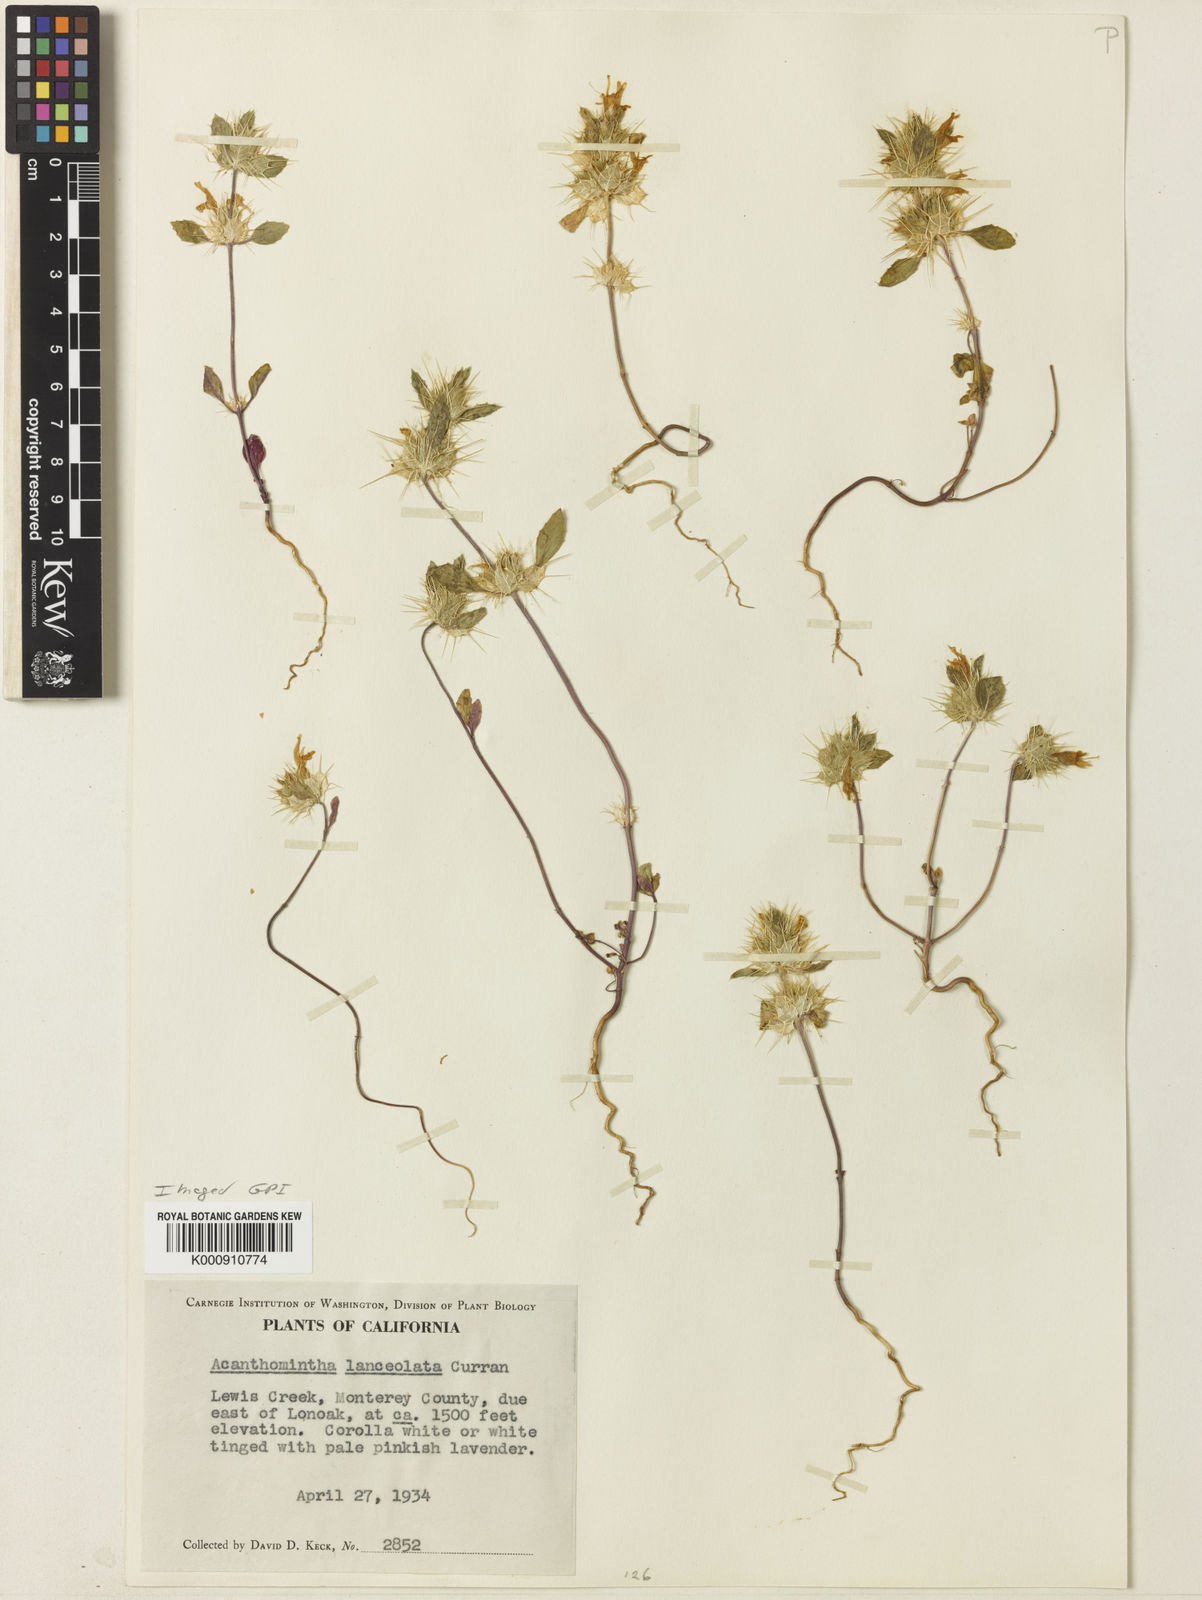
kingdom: Plantae
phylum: Tracheophyta
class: Magnoliopsida
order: Lamiales
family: Lamiaceae
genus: Acanthomintha
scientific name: Acanthomintha lanceolata
